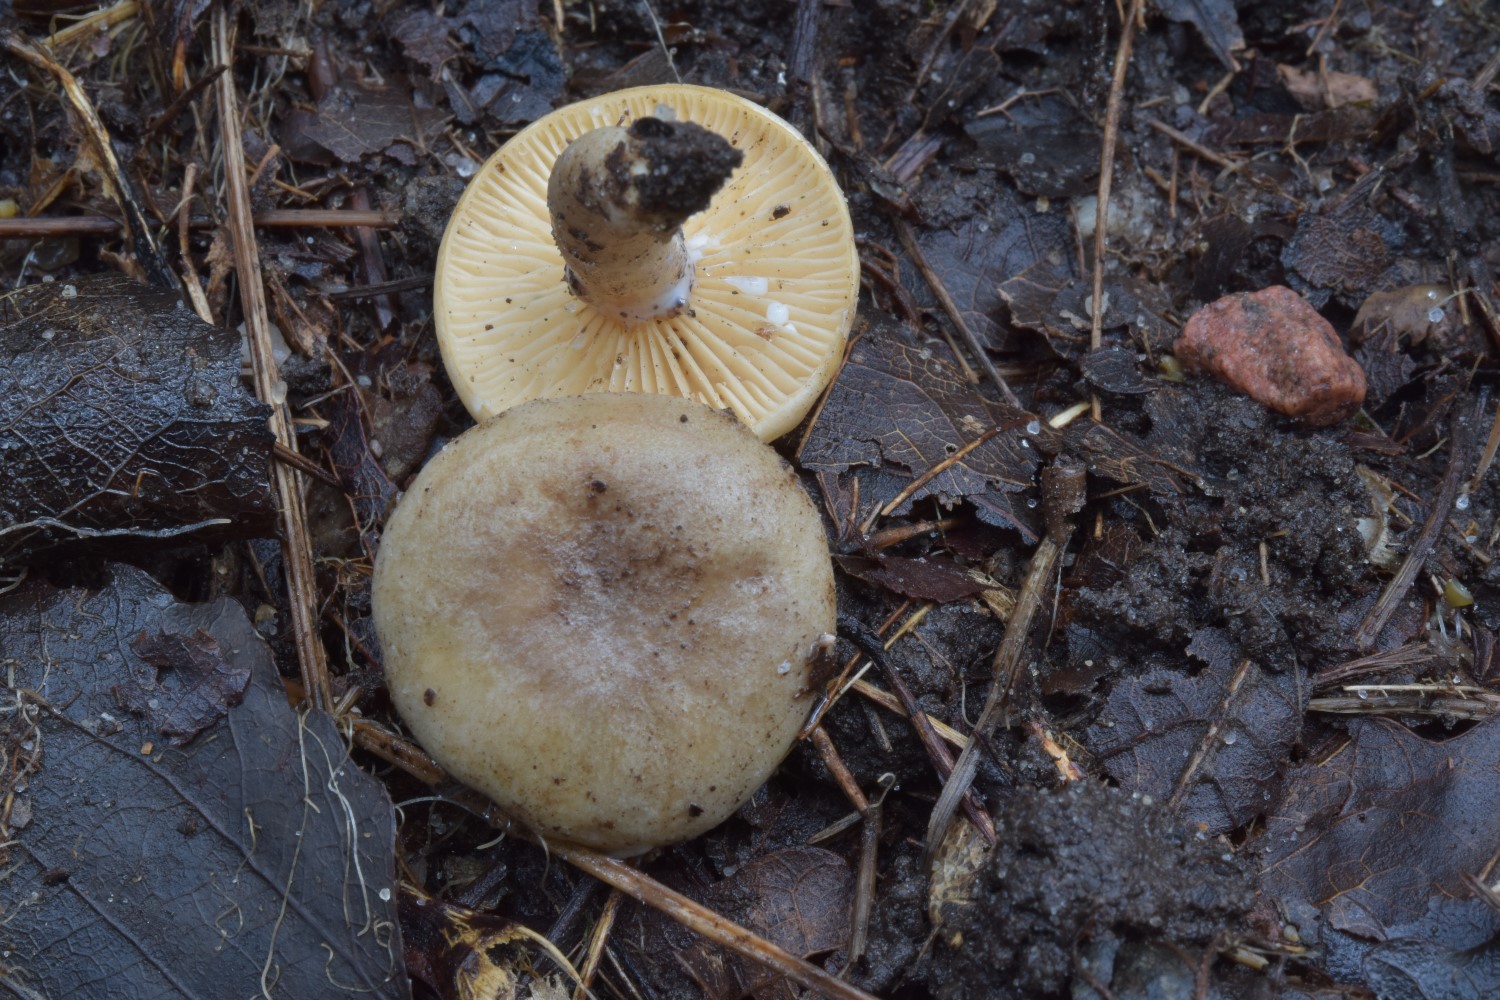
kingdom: Fungi
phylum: Basidiomycota
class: Agaricomycetes
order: Russulales
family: Russulaceae
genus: Lactarius
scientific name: Lactarius pyrogalus
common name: hassel-mælkehat
